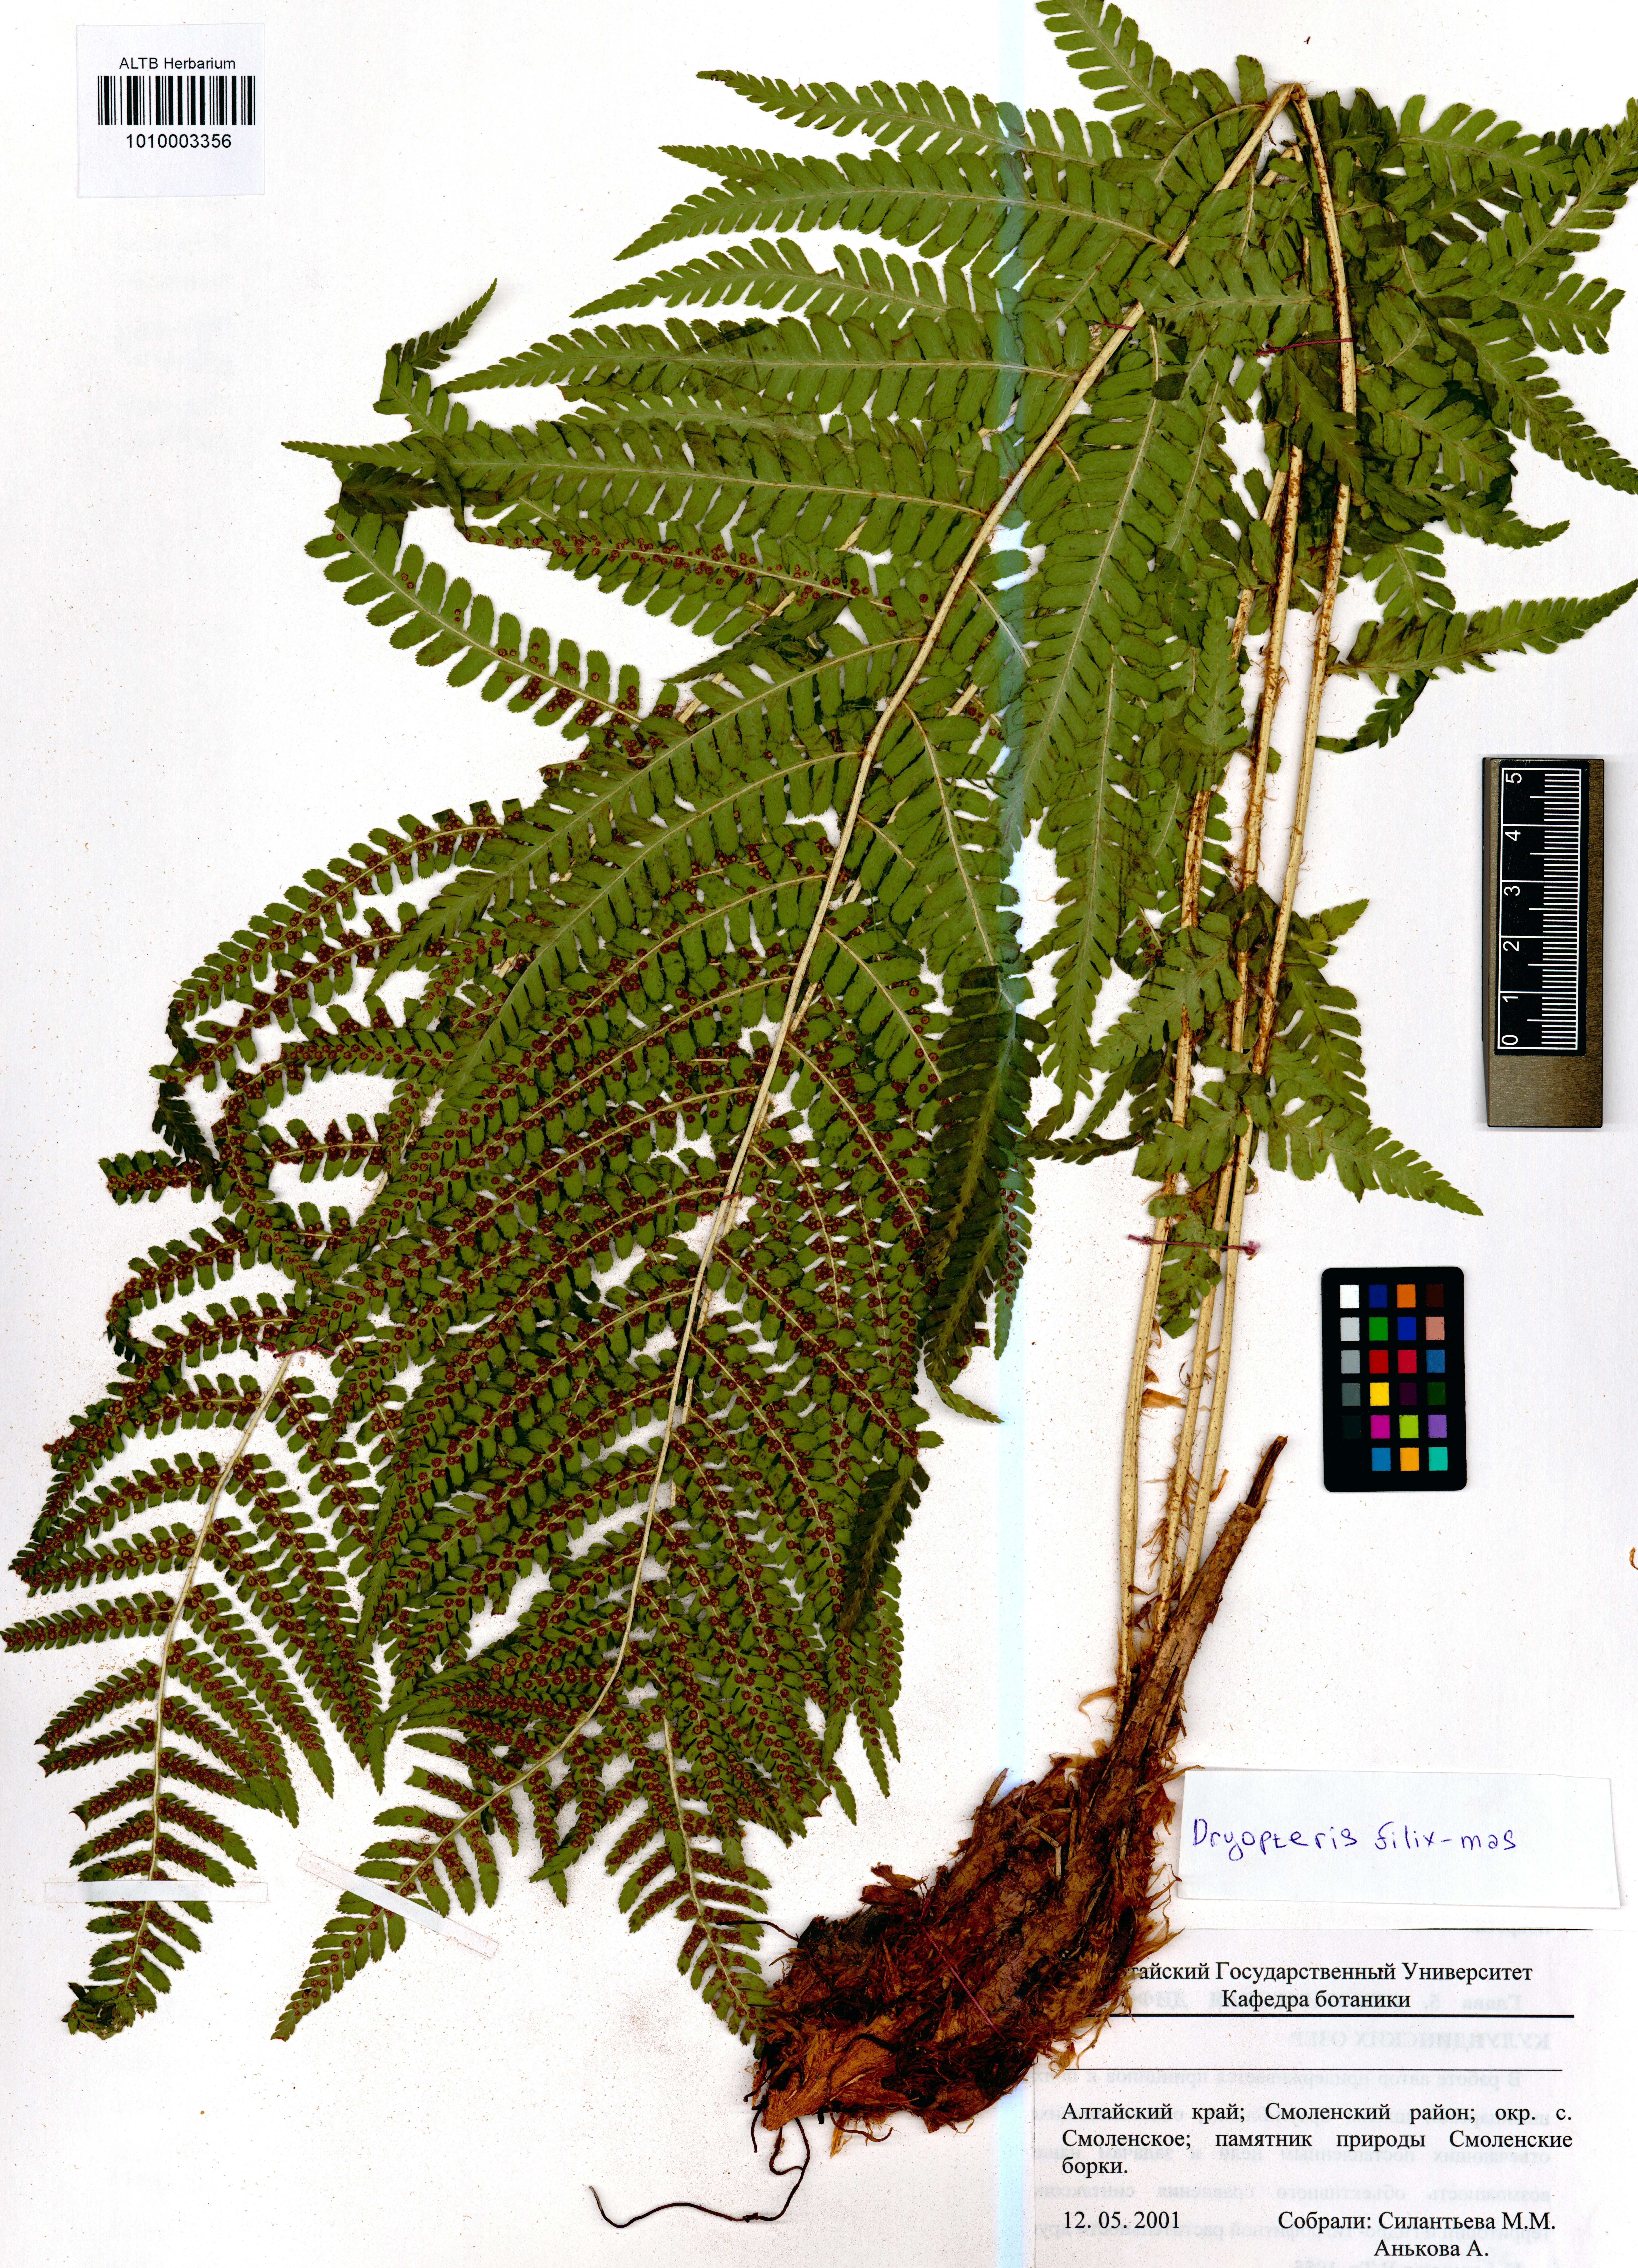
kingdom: Plantae
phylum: Tracheophyta
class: Polypodiopsida
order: Polypodiales
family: Dryopteridaceae
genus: Dryopteris
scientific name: Dryopteris filix-mas
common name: Male fern
